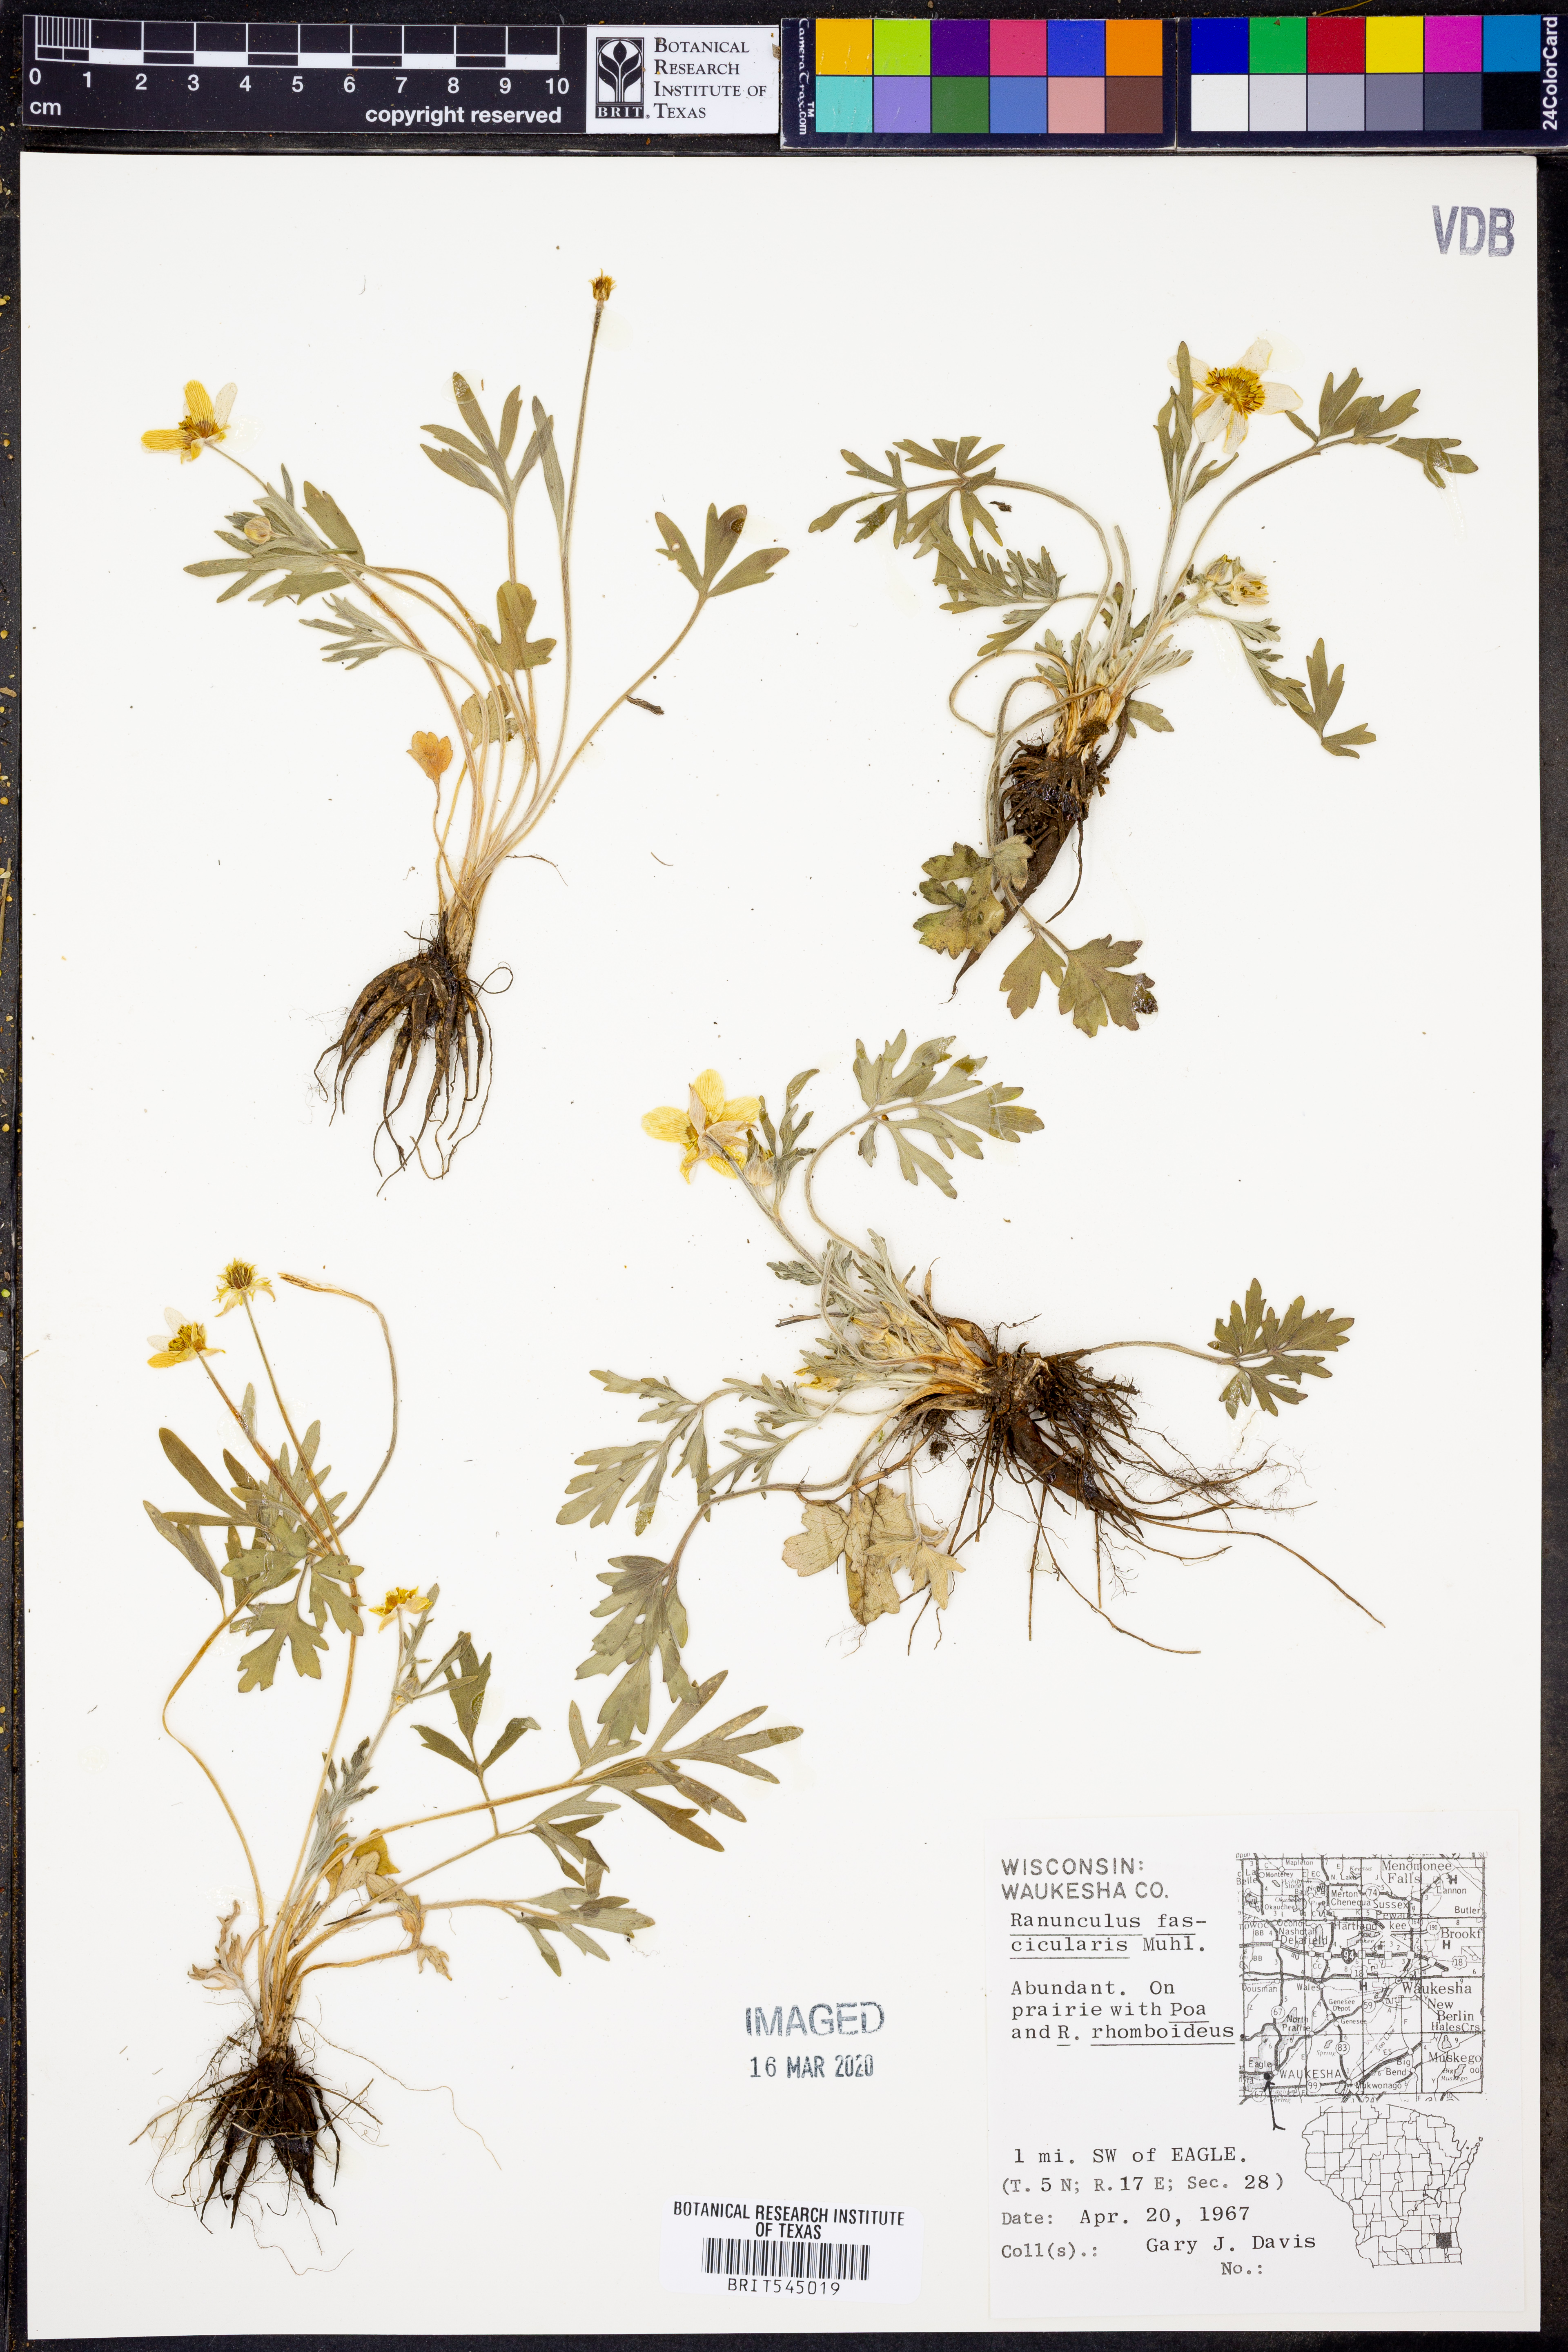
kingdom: Plantae
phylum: Tracheophyta
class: Magnoliopsida
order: Ranunculales
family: Ranunculaceae
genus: Ranunculus
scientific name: Ranunculus fascicularis
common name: Early buttercup
